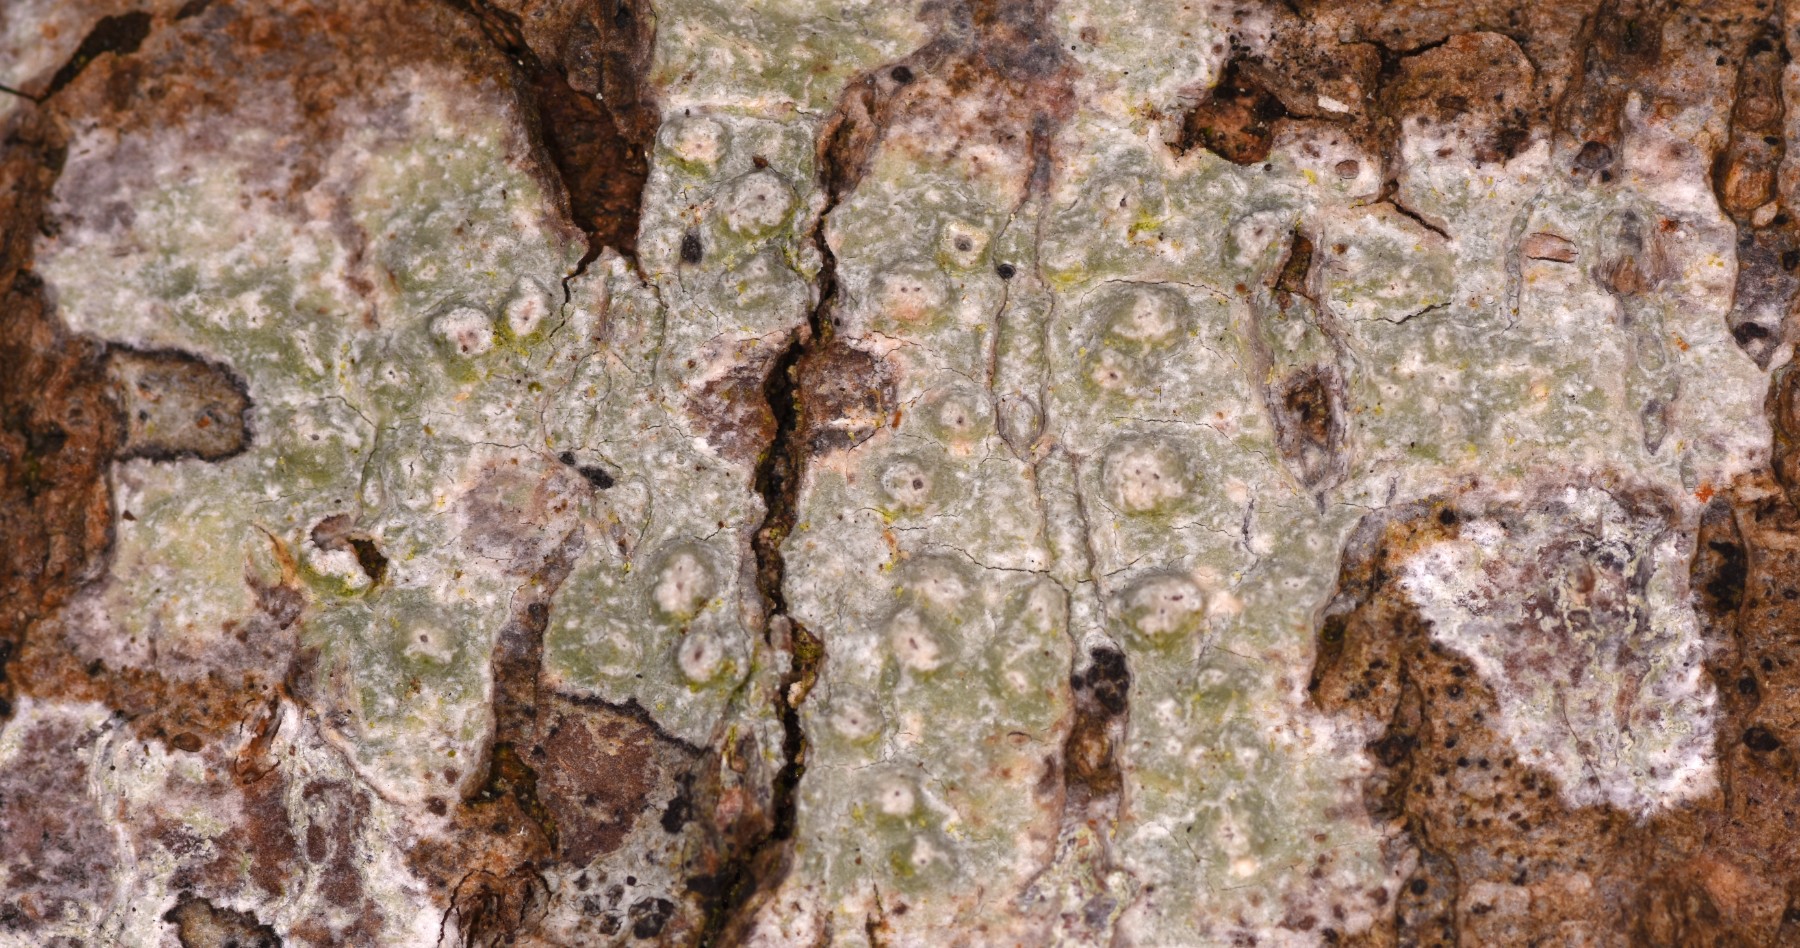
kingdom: Fungi
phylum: Ascomycota
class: Lecanoromycetes
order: Pertusariales
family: Pertusariaceae
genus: Pertusaria
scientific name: Pertusaria leioplaca
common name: tynd prikvortelav
